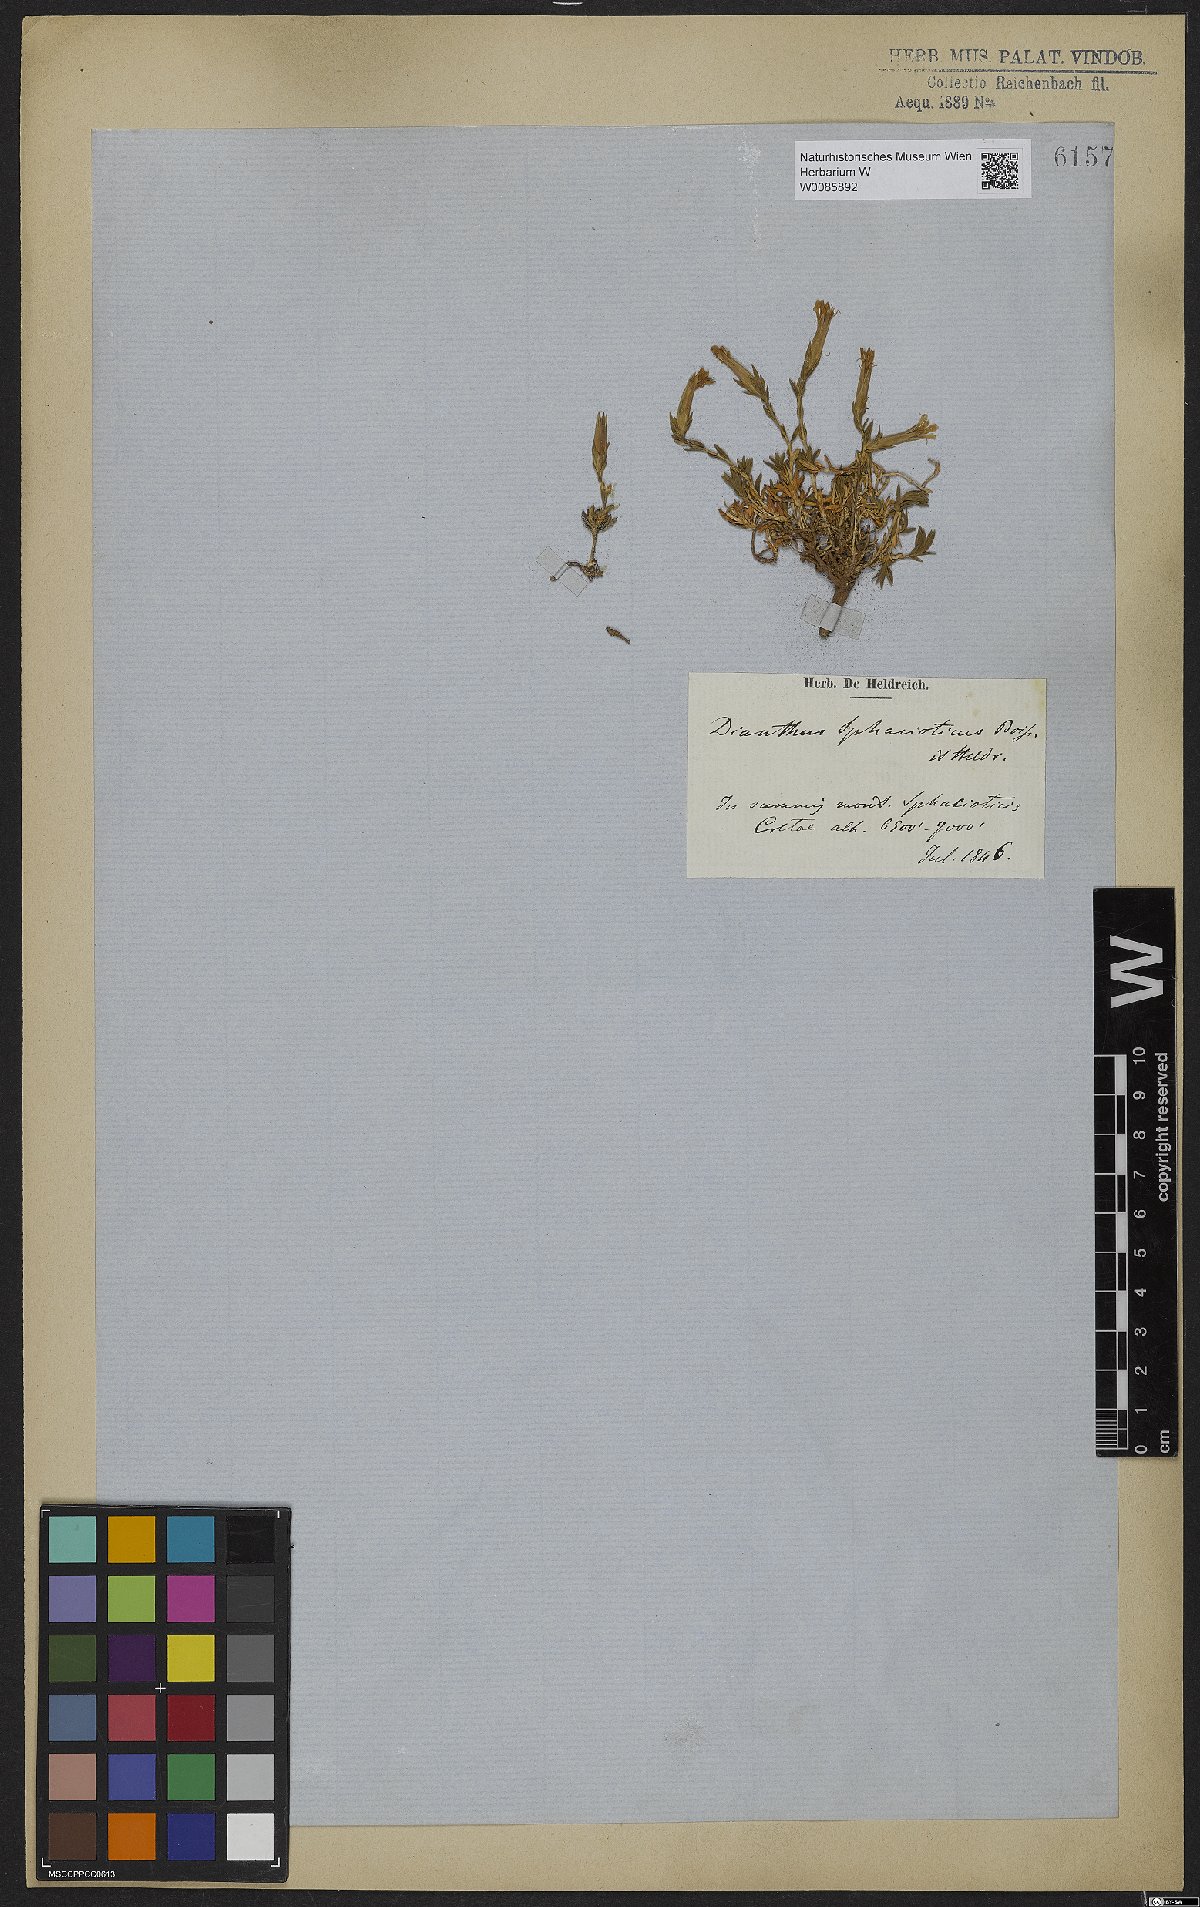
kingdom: Plantae
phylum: Tracheophyta
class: Magnoliopsida
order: Caryophyllales
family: Caryophyllaceae
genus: Dianthus
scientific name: Dianthus sphacioticus
